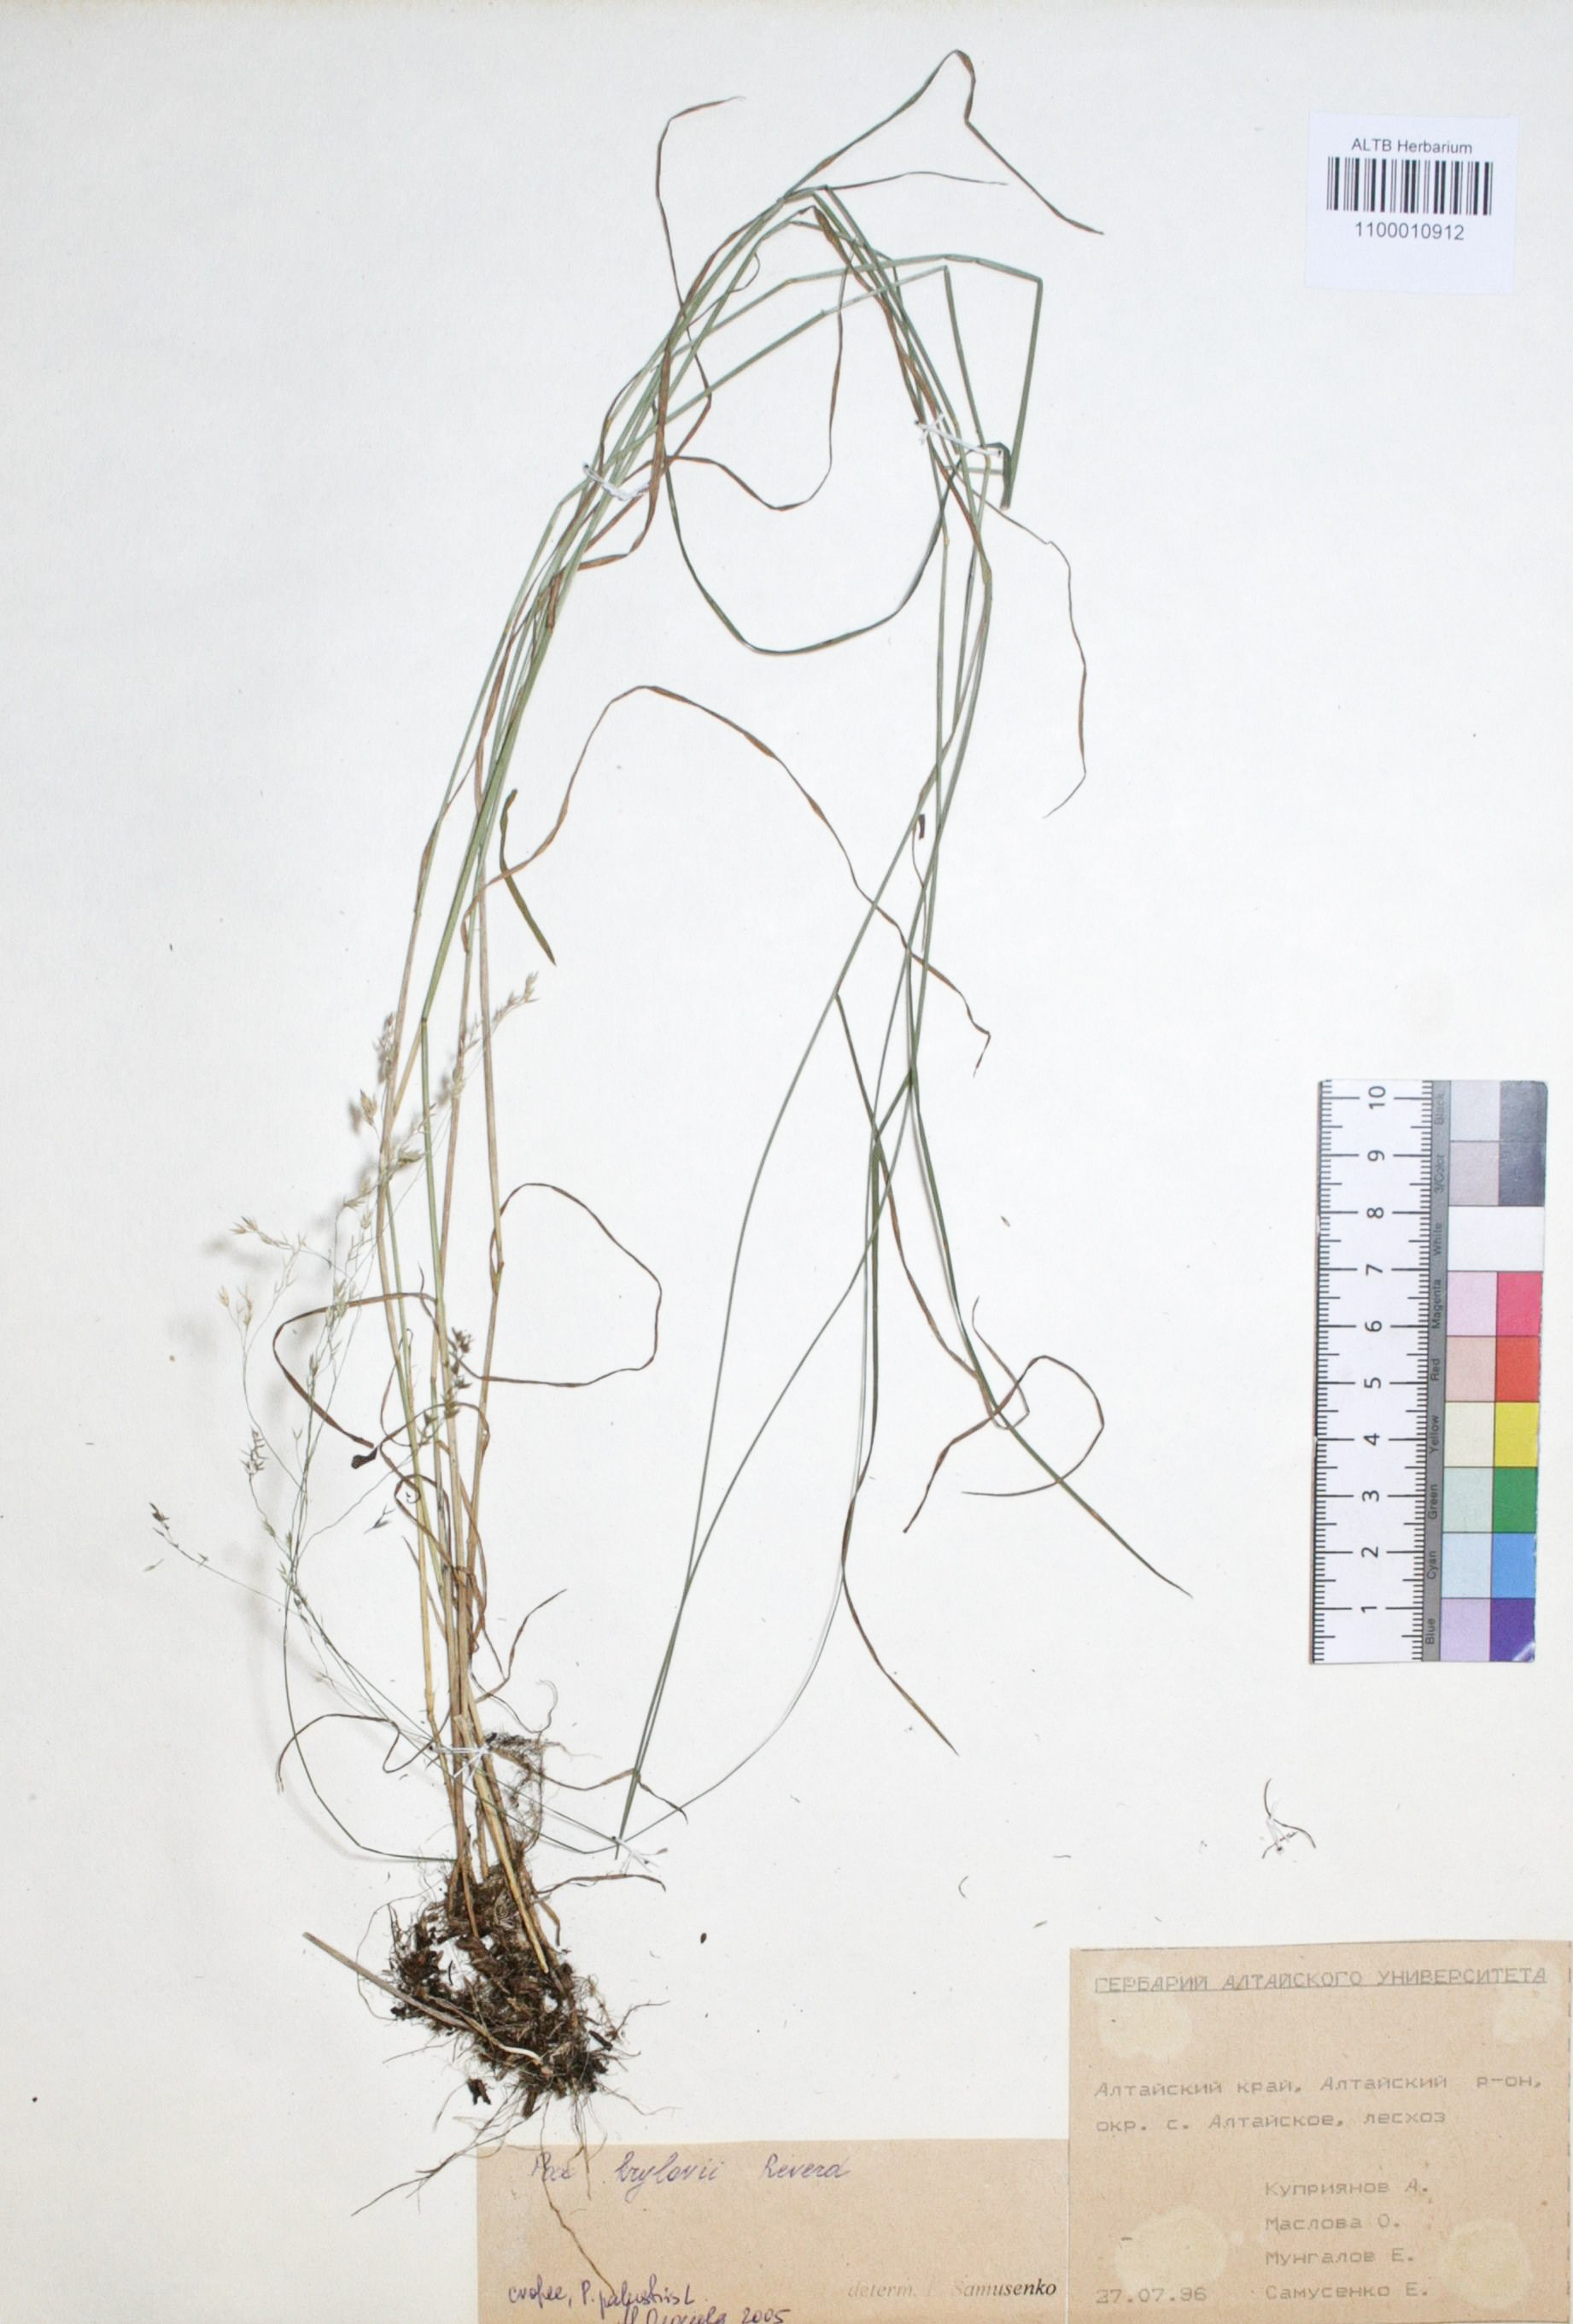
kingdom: Plantae
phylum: Tracheophyta
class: Liliopsida
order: Poales
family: Poaceae
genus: Poa
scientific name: Poa krylovii
